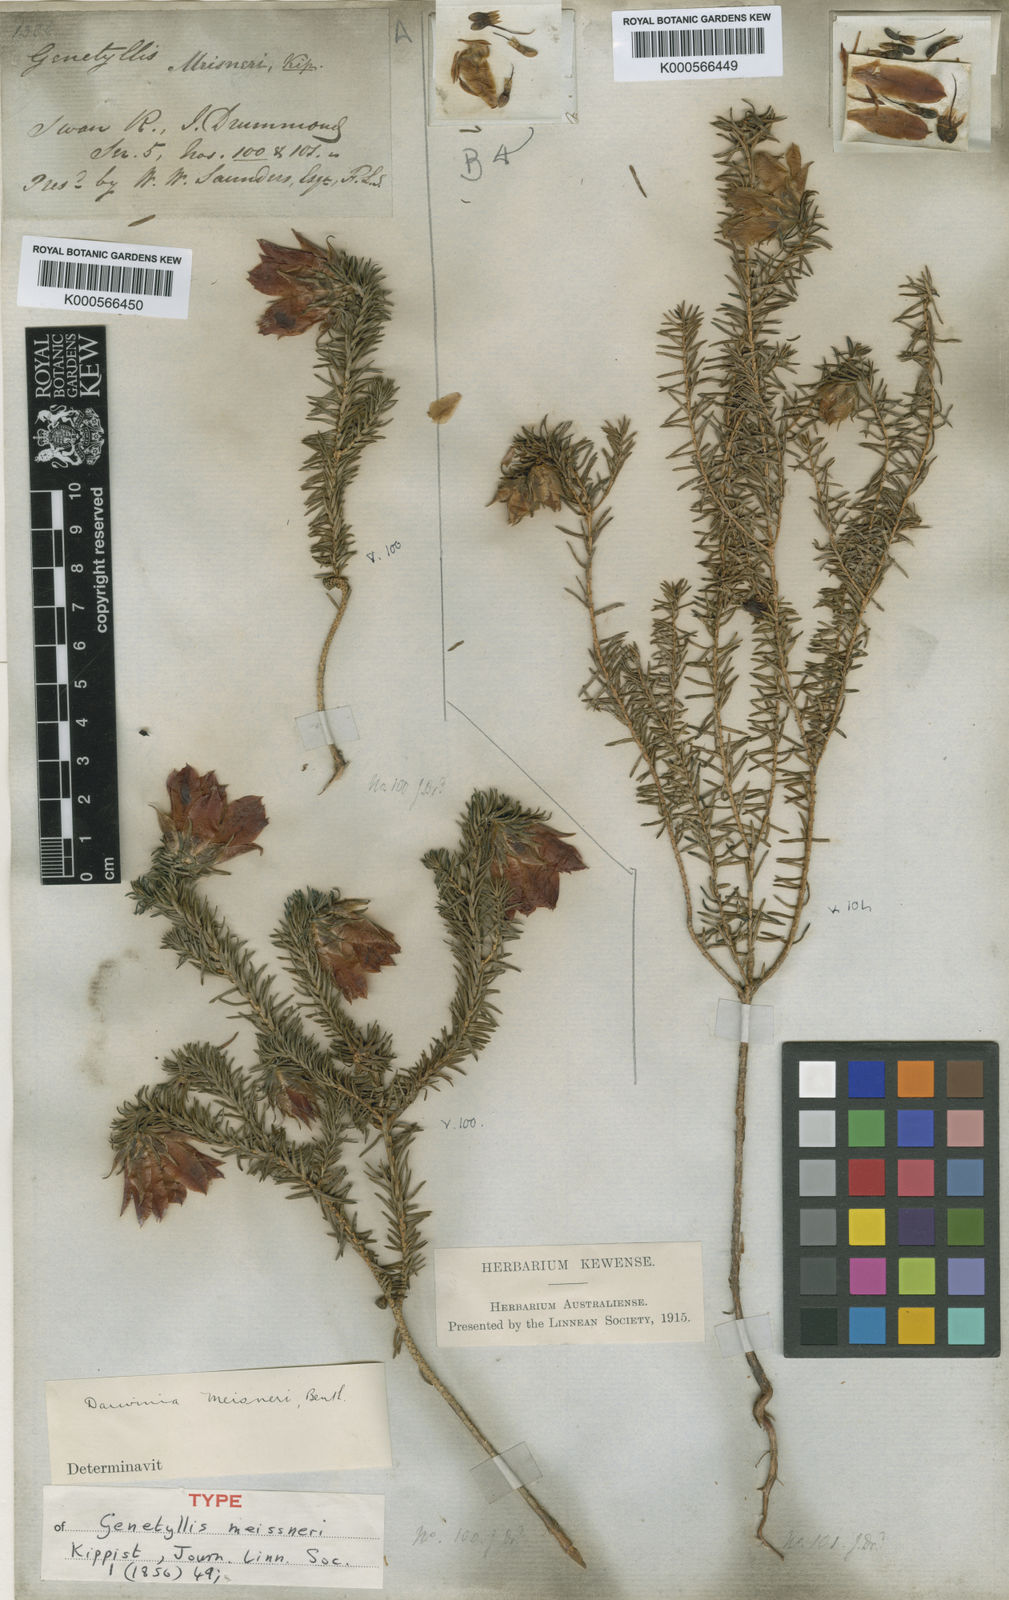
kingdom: Plantae
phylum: Tracheophyta
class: Magnoliopsida
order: Myrtales
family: Myrtaceae
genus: Darwinia
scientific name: Darwinia oxylepis
